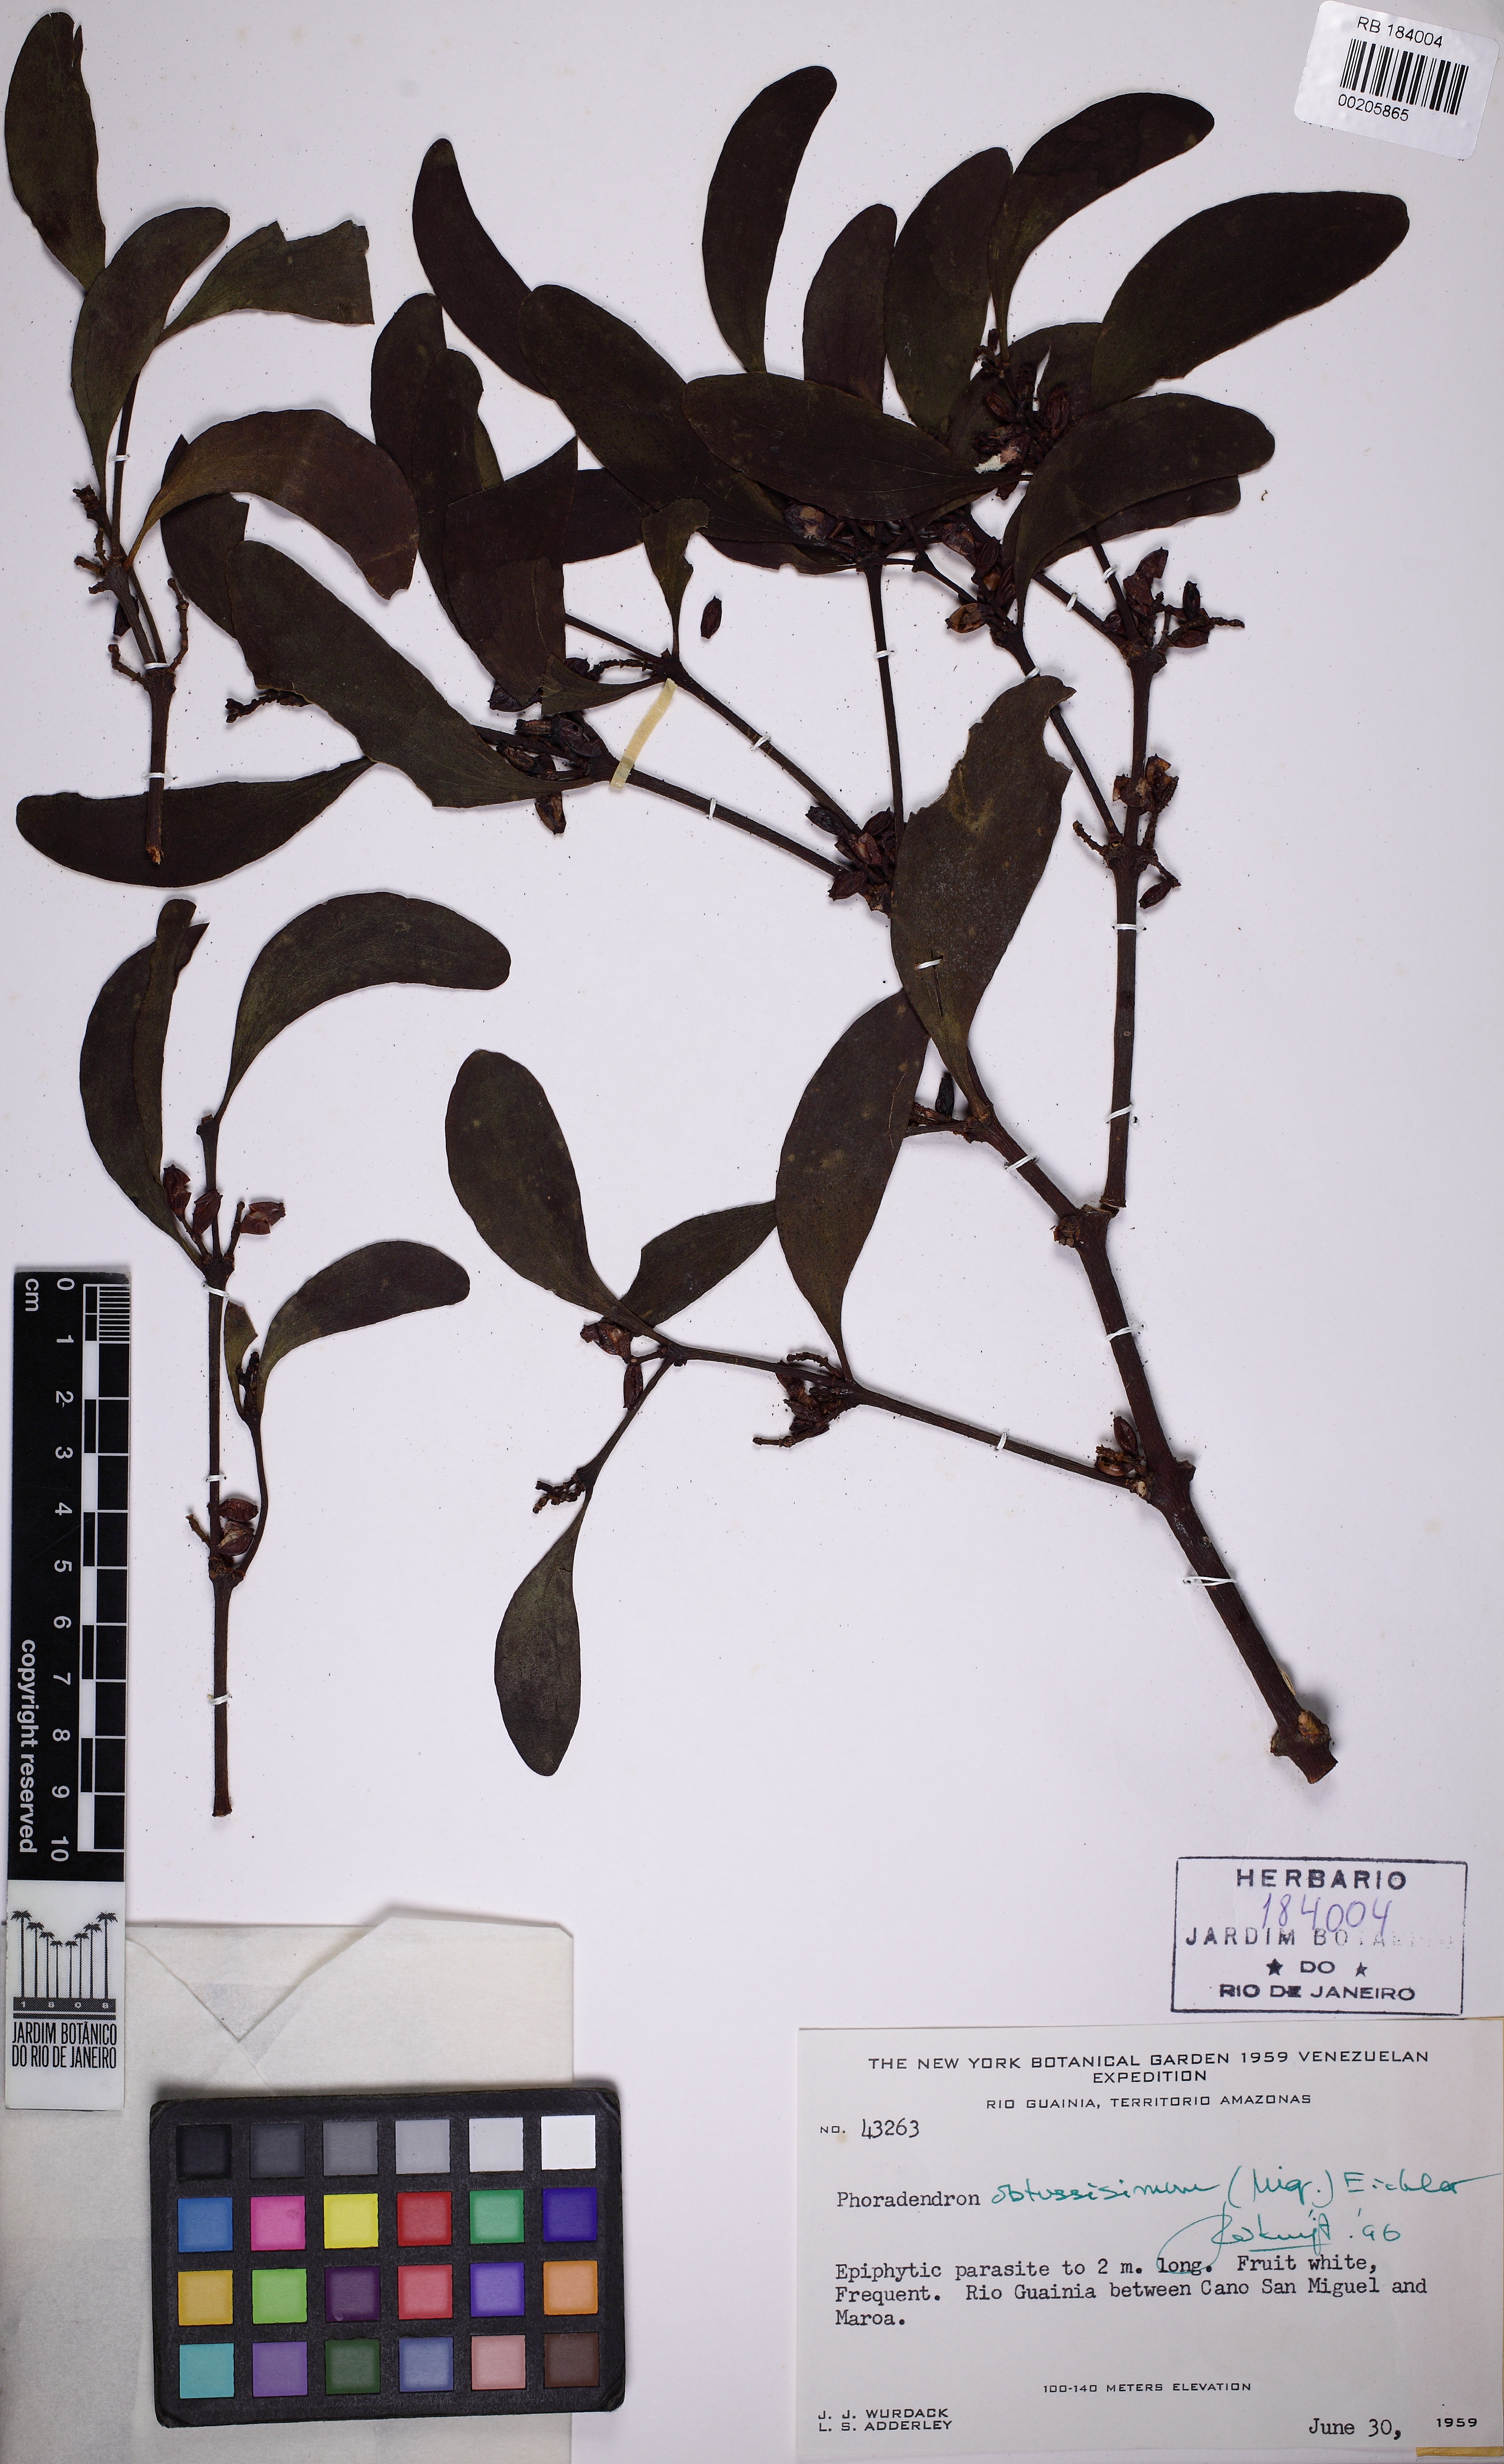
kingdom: Plantae
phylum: Tracheophyta
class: Magnoliopsida
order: Santalales
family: Viscaceae
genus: Phoradendron
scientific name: Phoradendron obtusissimum
